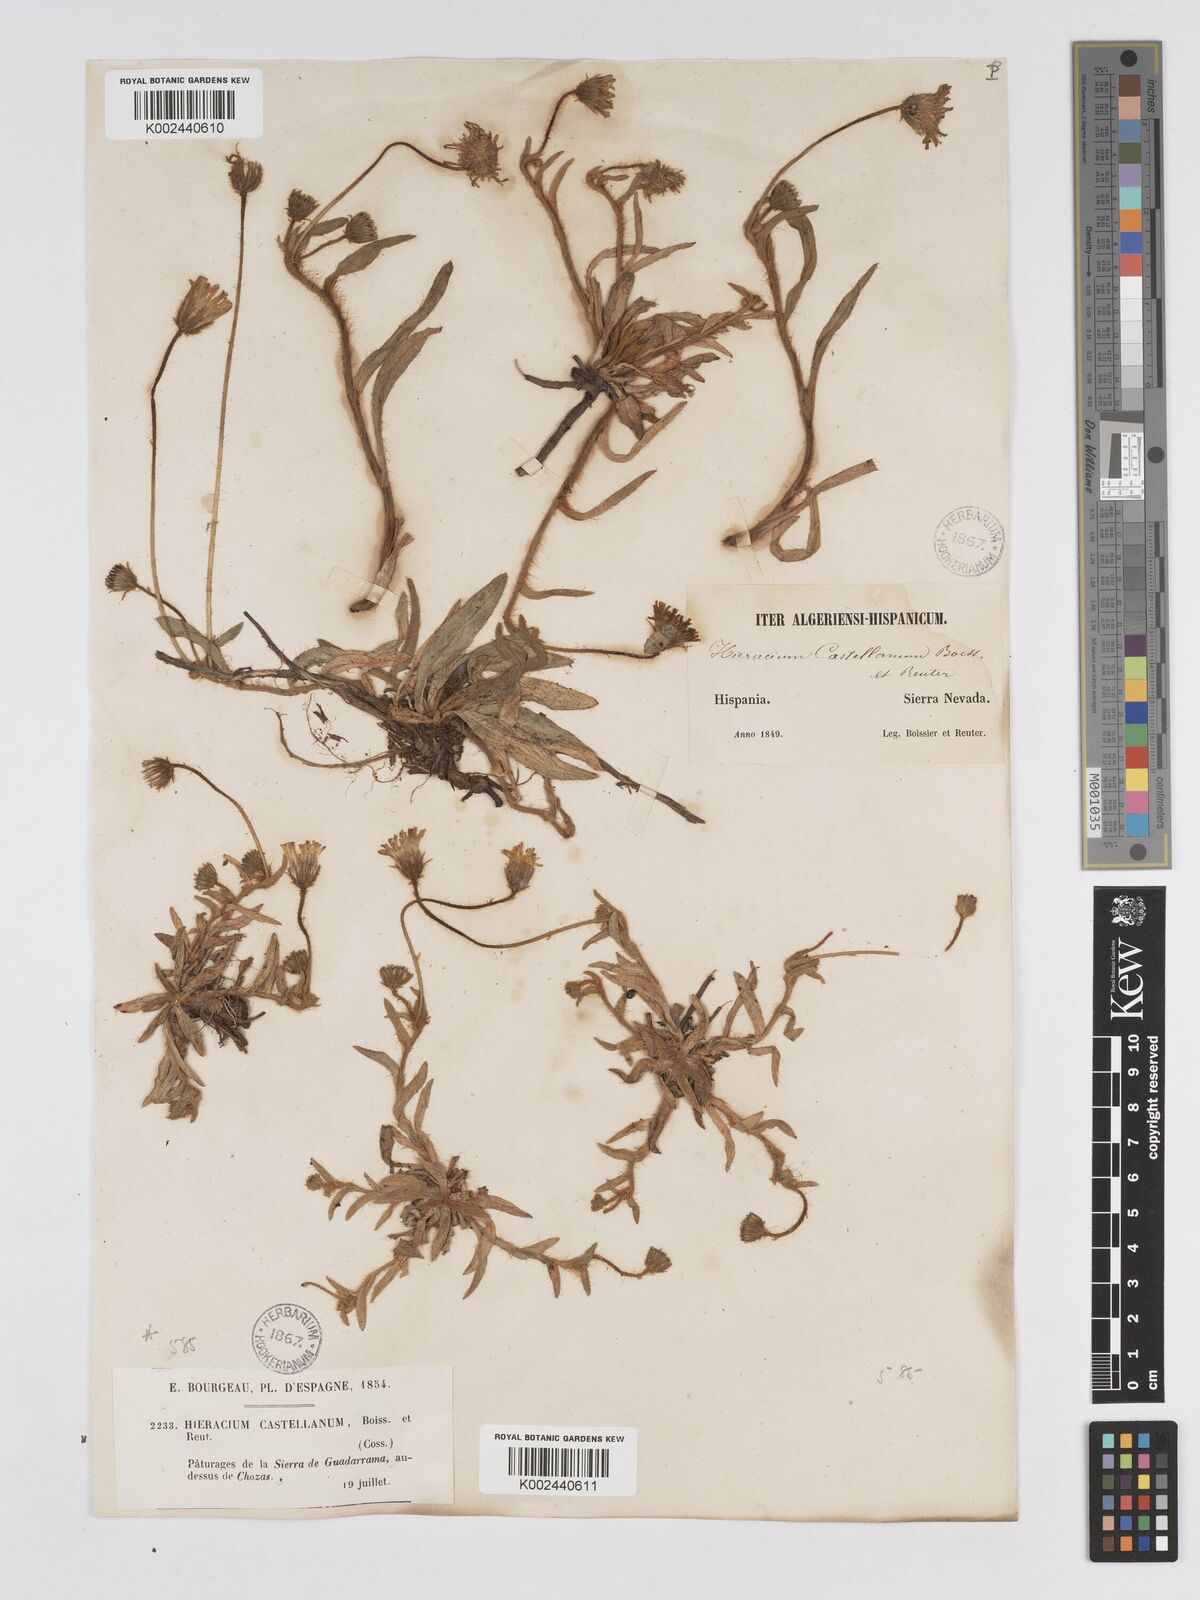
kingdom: Plantae
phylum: Tracheophyta
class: Magnoliopsida
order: Asterales
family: Asteraceae
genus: Pilosella
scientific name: Pilosella castellana
